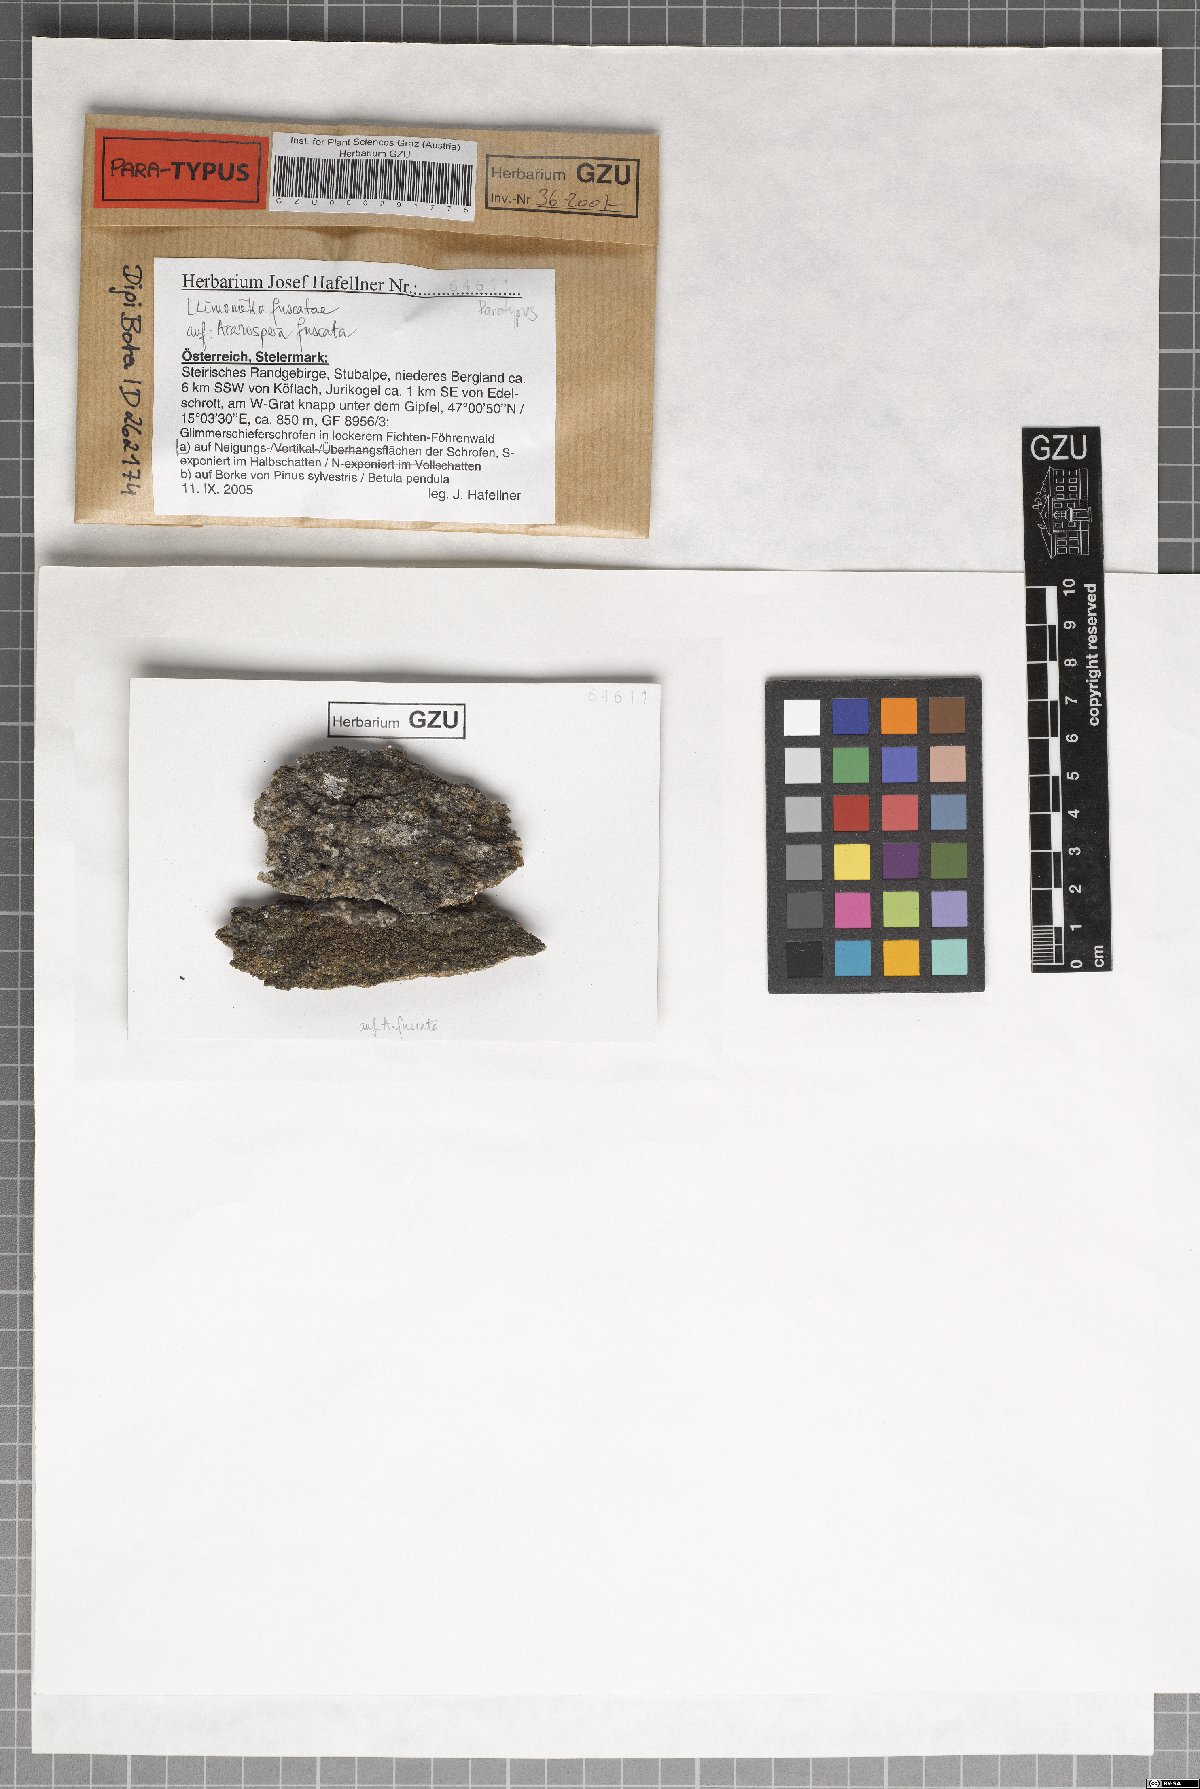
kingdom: Fungi
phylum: Ascomycota
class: Leotiomycetes
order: Helotiales
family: Cordieritidaceae
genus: Llimoniella
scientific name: Llimoniella fuscatae
